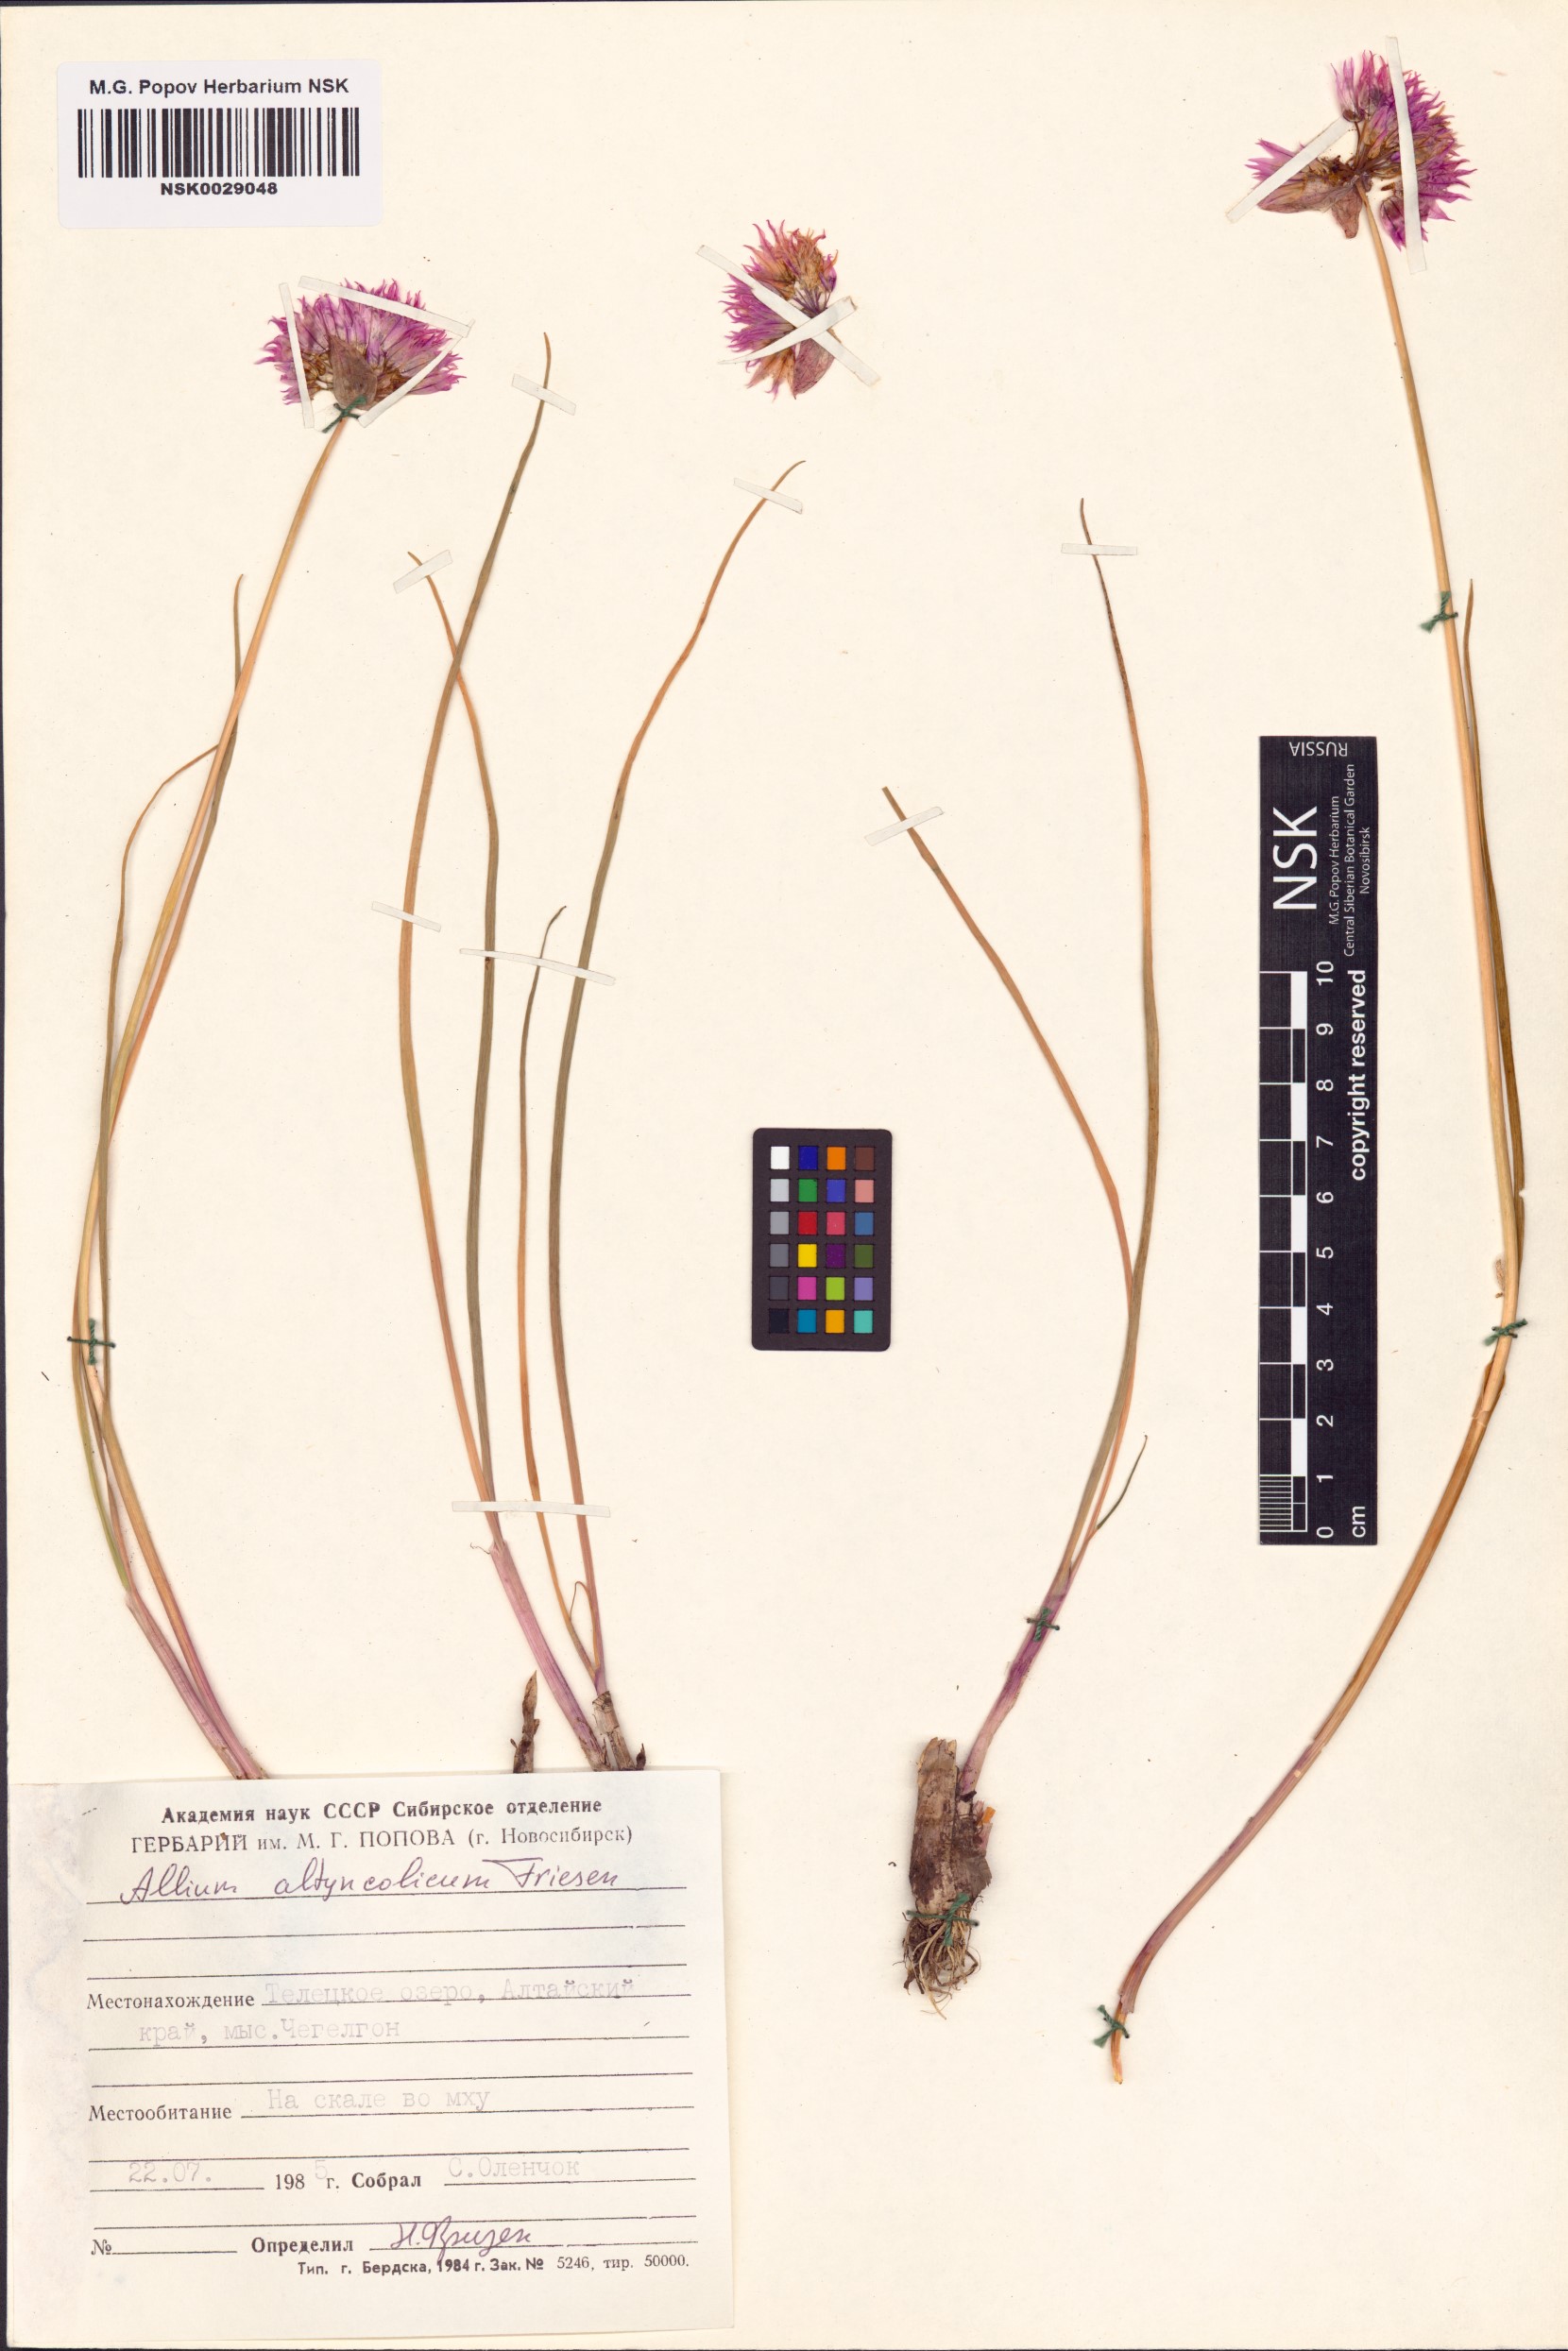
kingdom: Plantae
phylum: Tracheophyta
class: Liliopsida
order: Asparagales
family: Amaryllidaceae
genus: Allium
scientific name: Allium altyncolicum
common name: Altynkol chive
